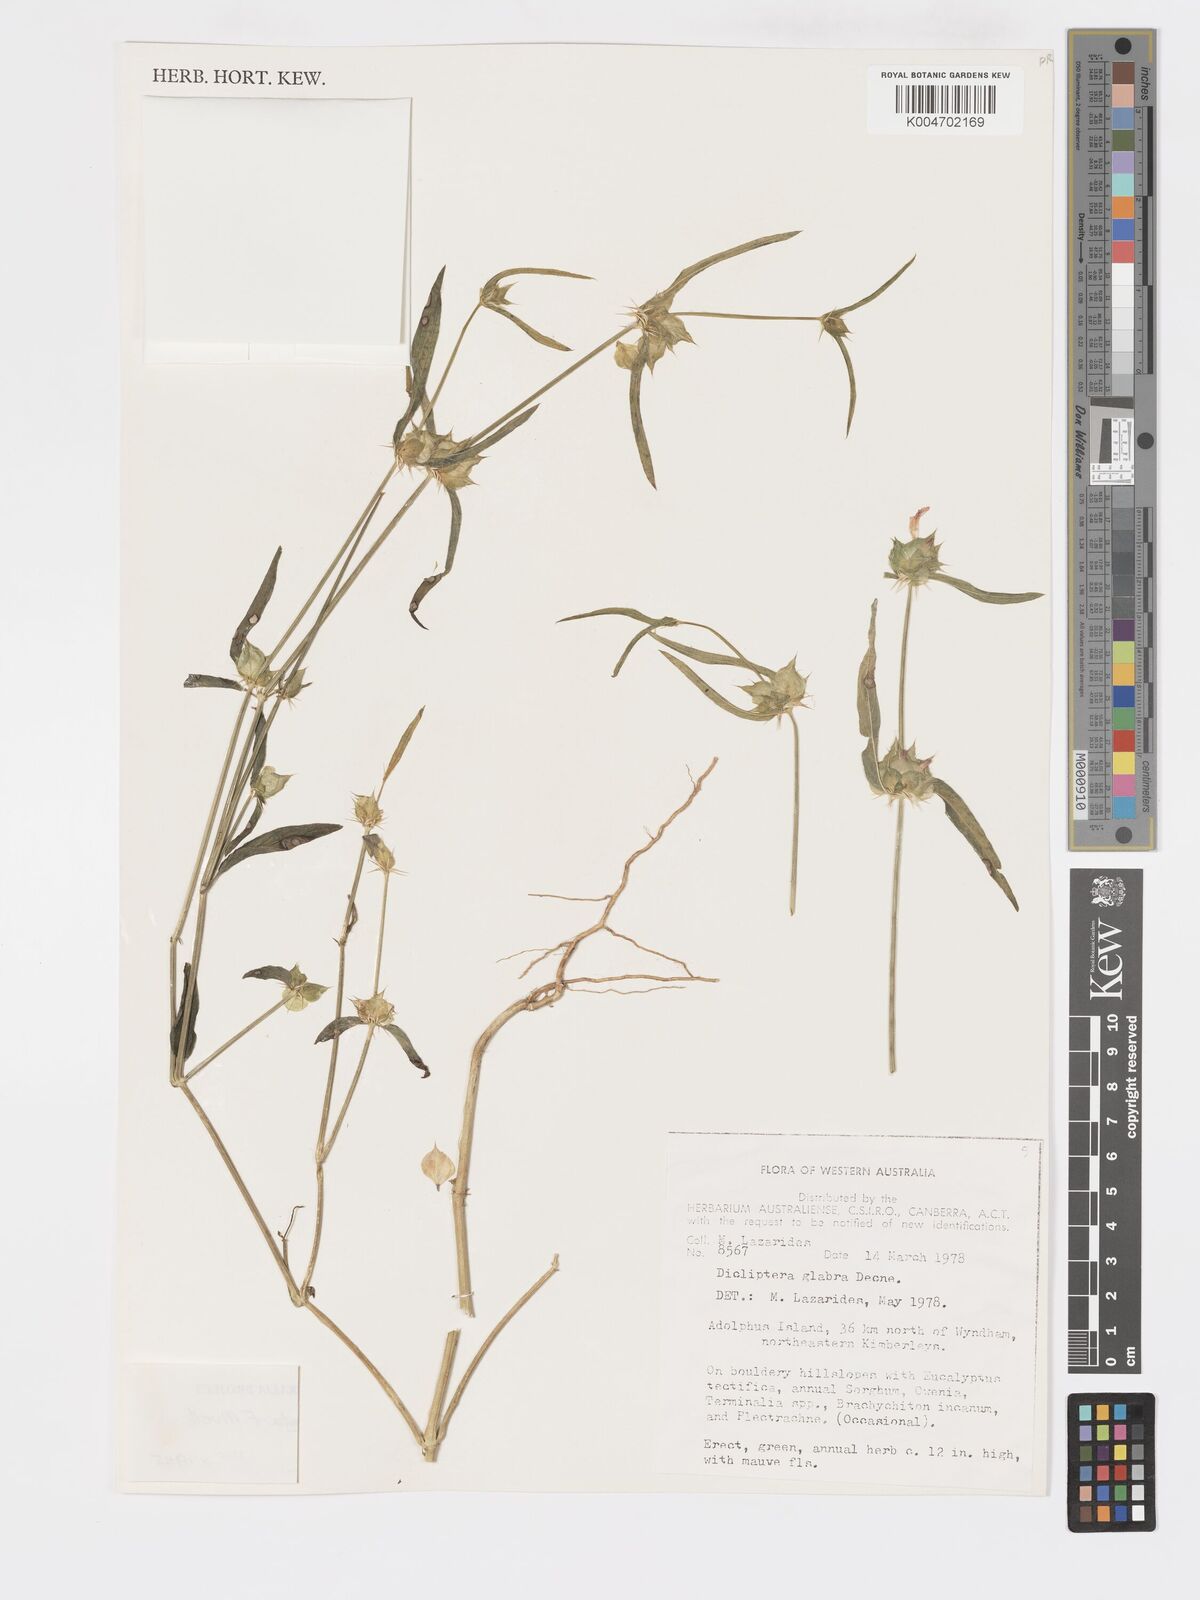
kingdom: Plantae
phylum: Tracheophyta
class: Magnoliopsida
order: Lamiales
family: Acanthaceae
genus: Dicliptera
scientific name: Dicliptera armata
